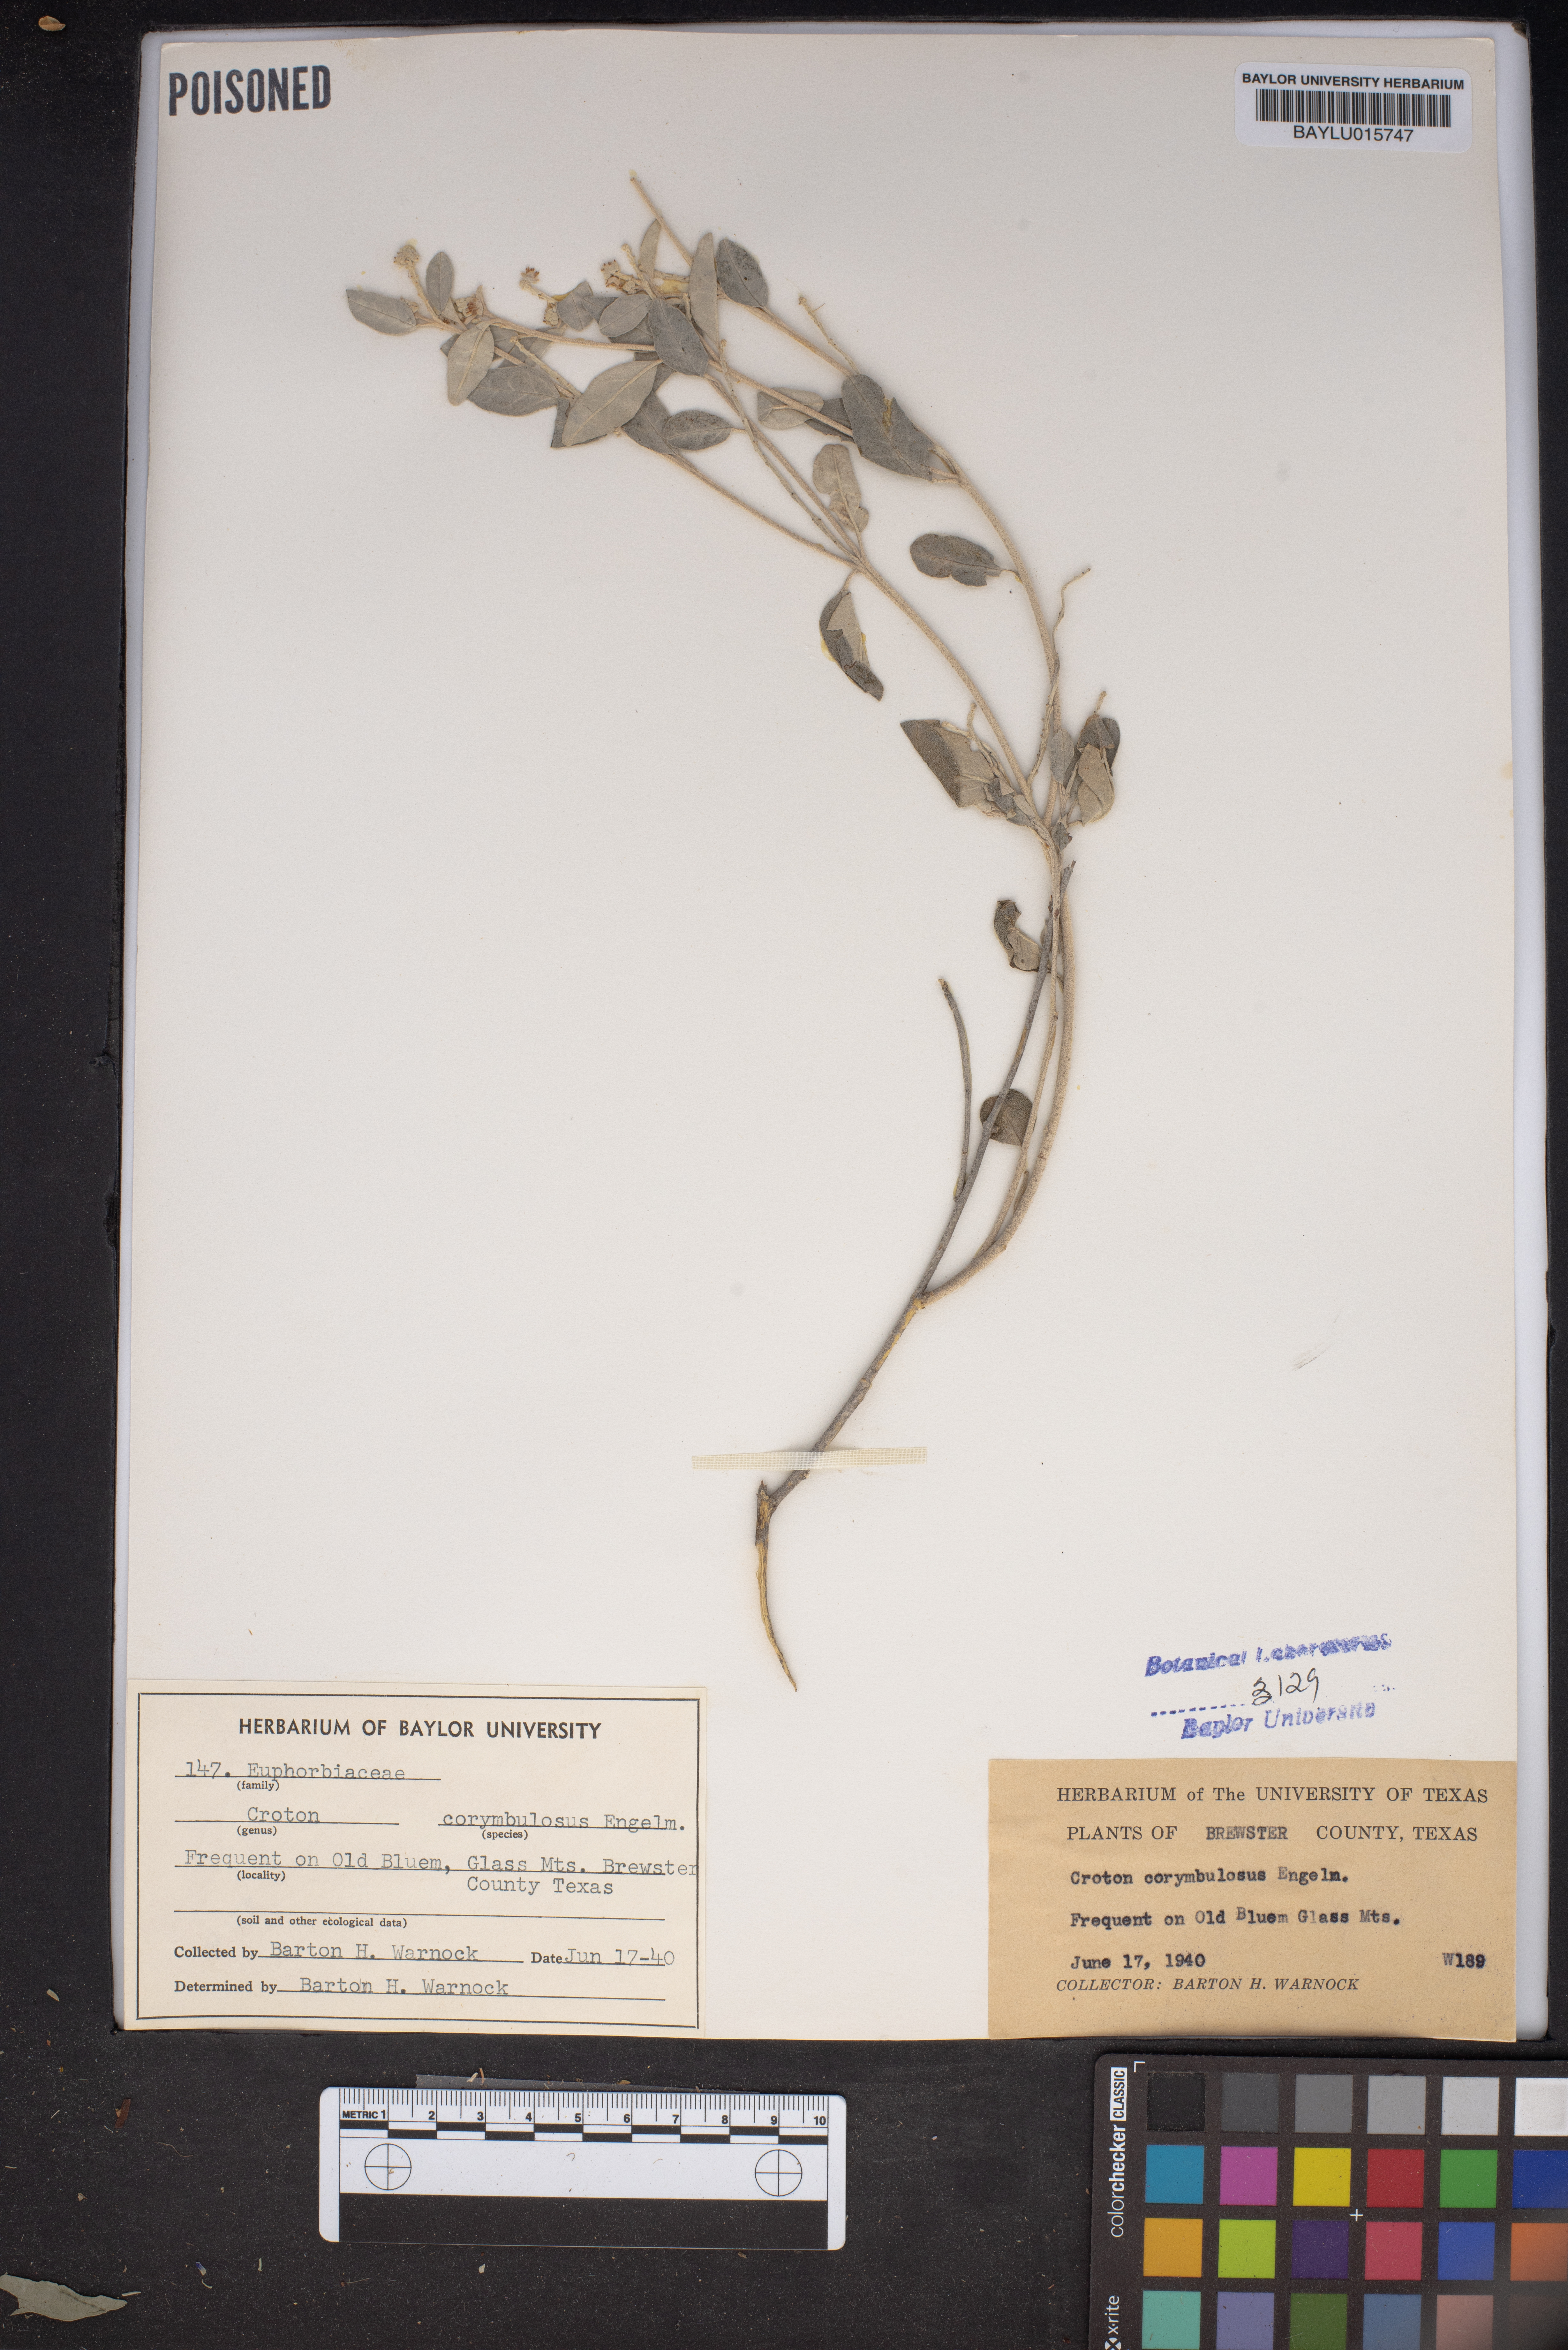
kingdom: Plantae
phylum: Tracheophyta
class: Magnoliopsida
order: Malpighiales
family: Euphorbiaceae
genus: Croton
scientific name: Croton pottsii
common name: Leatherweed
